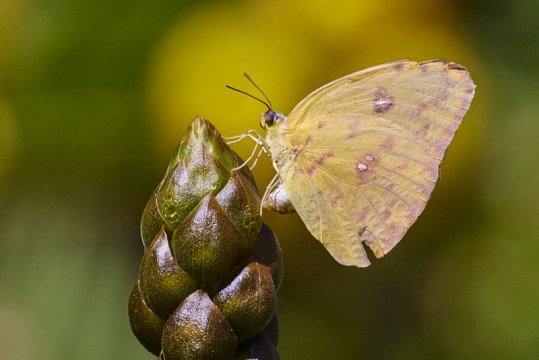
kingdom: Animalia
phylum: Arthropoda
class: Insecta
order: Lepidoptera
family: Pieridae
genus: Phoebis
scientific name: Phoebis sennae
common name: Cloudless Sulphur
